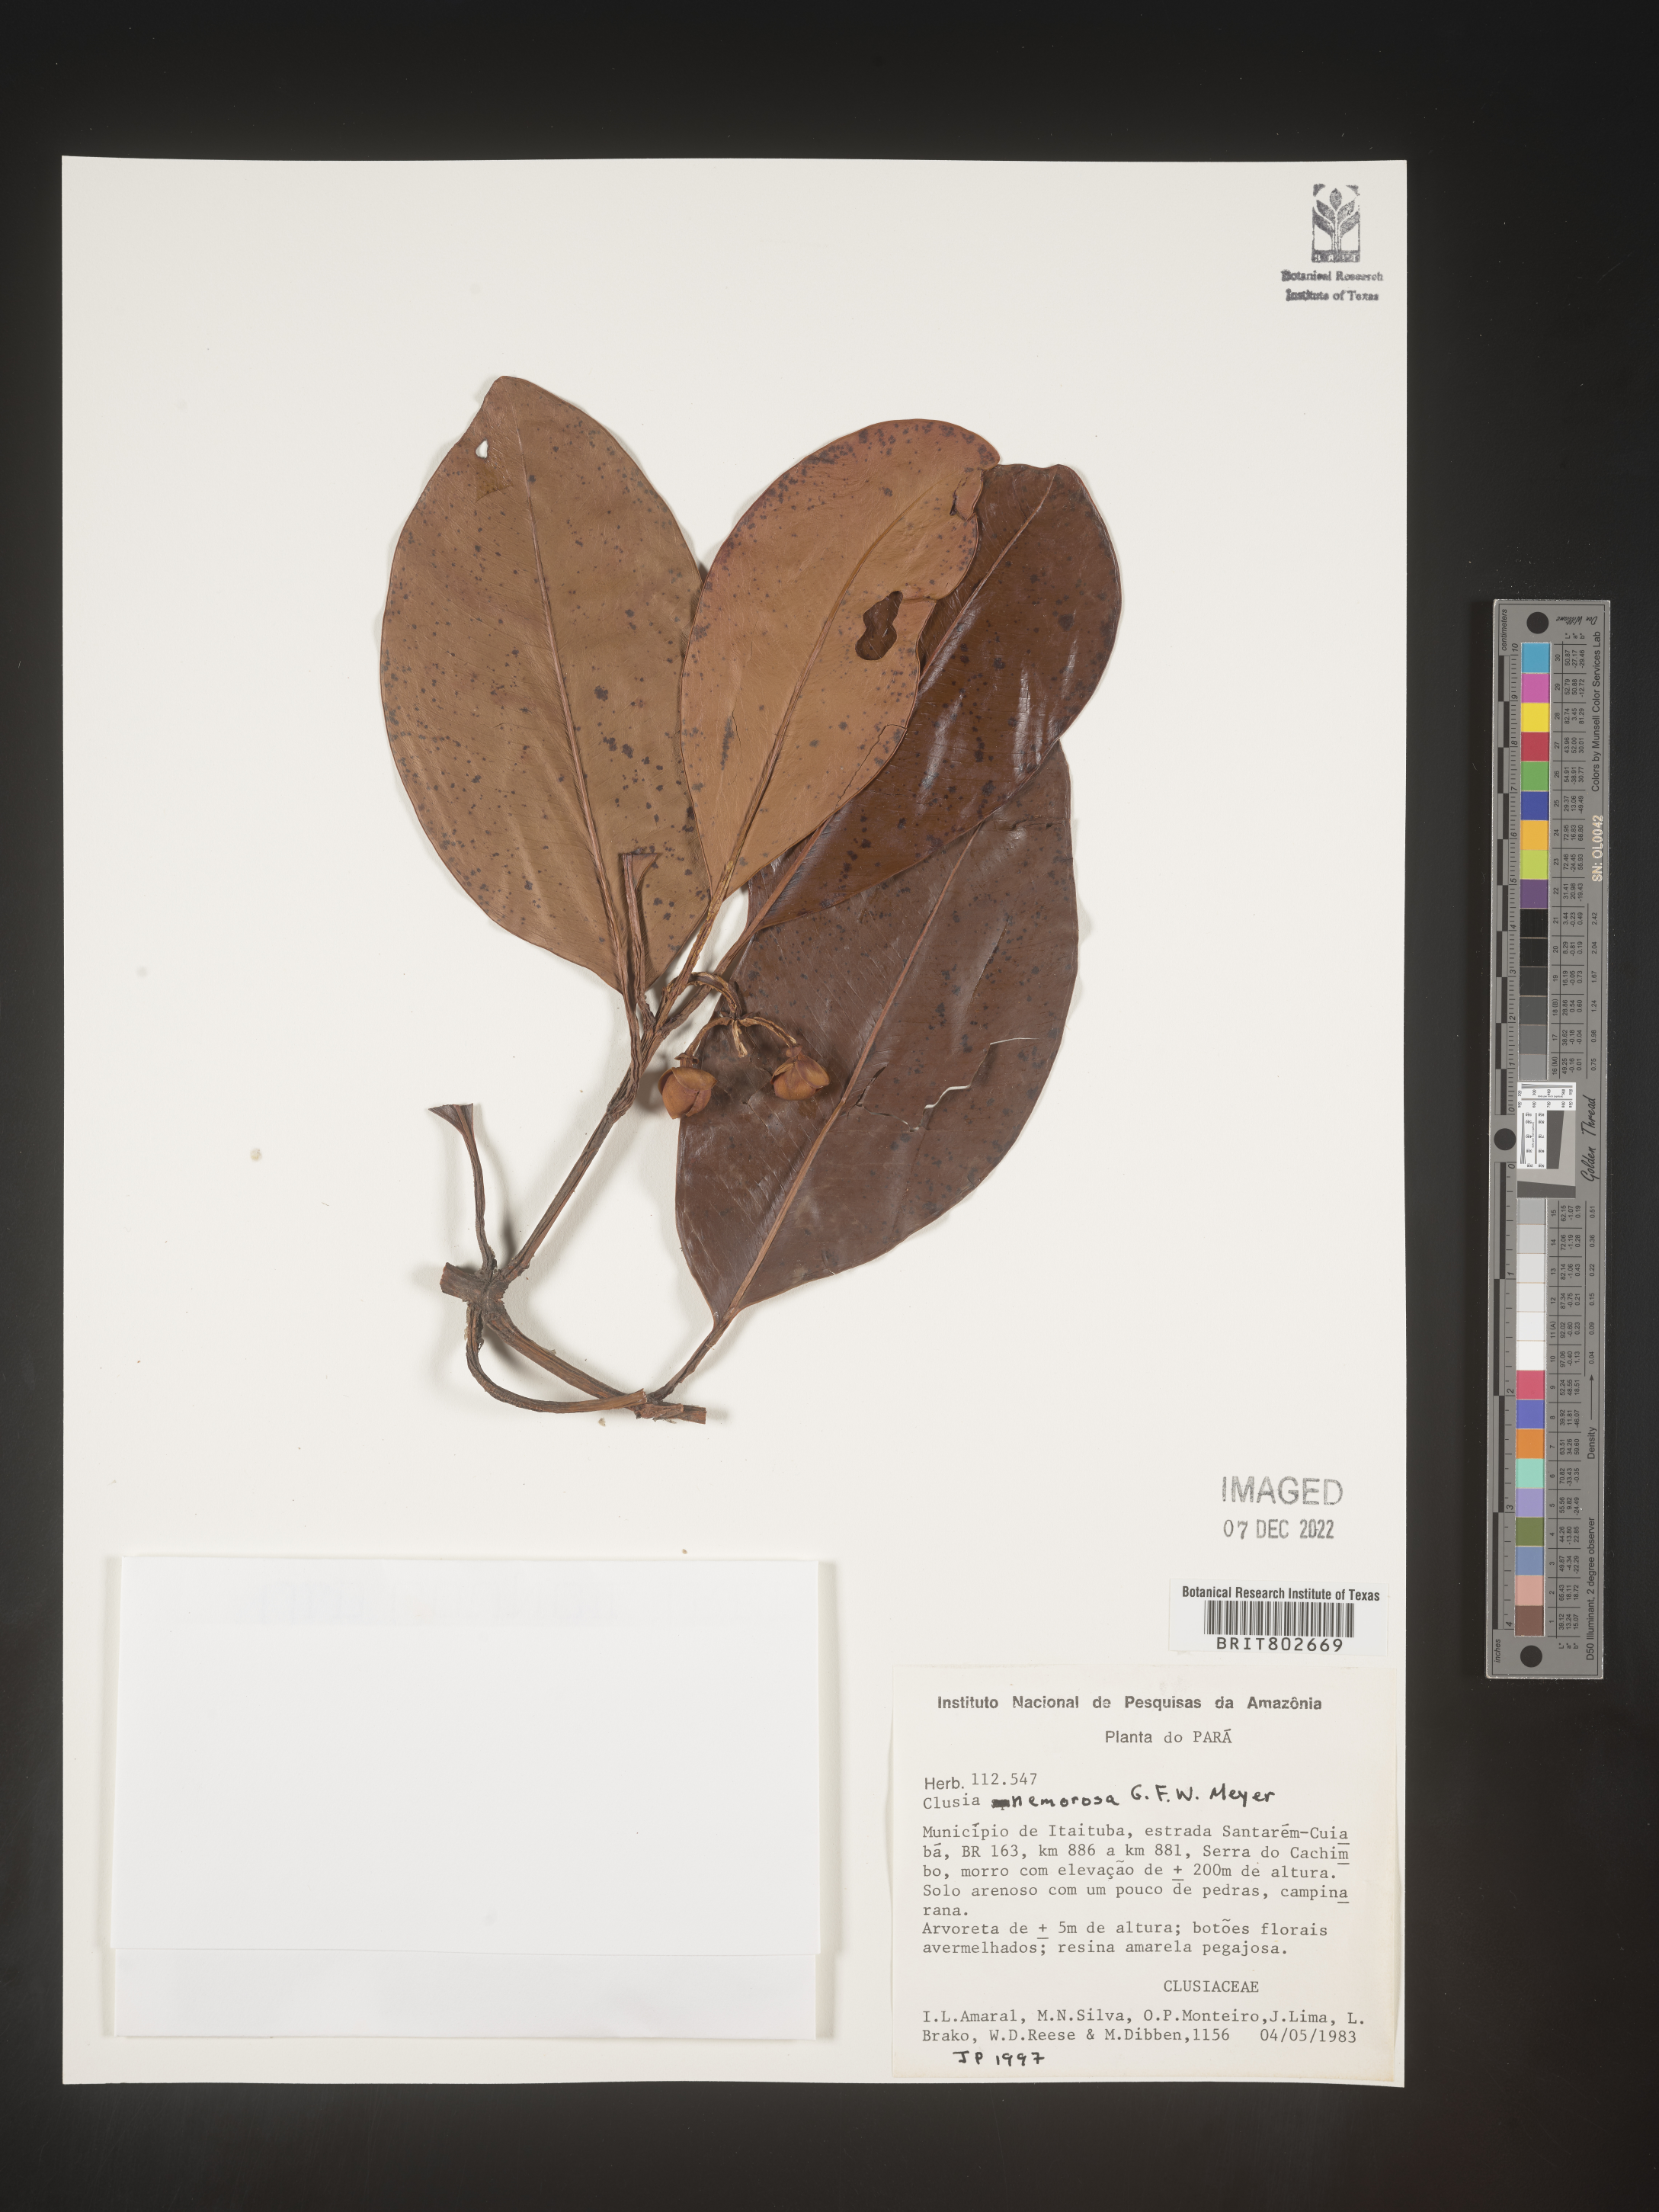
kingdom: Plantae
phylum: Tracheophyta
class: Magnoliopsida
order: Malpighiales
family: Clusiaceae
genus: Clusia
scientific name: Clusia nemorosa
